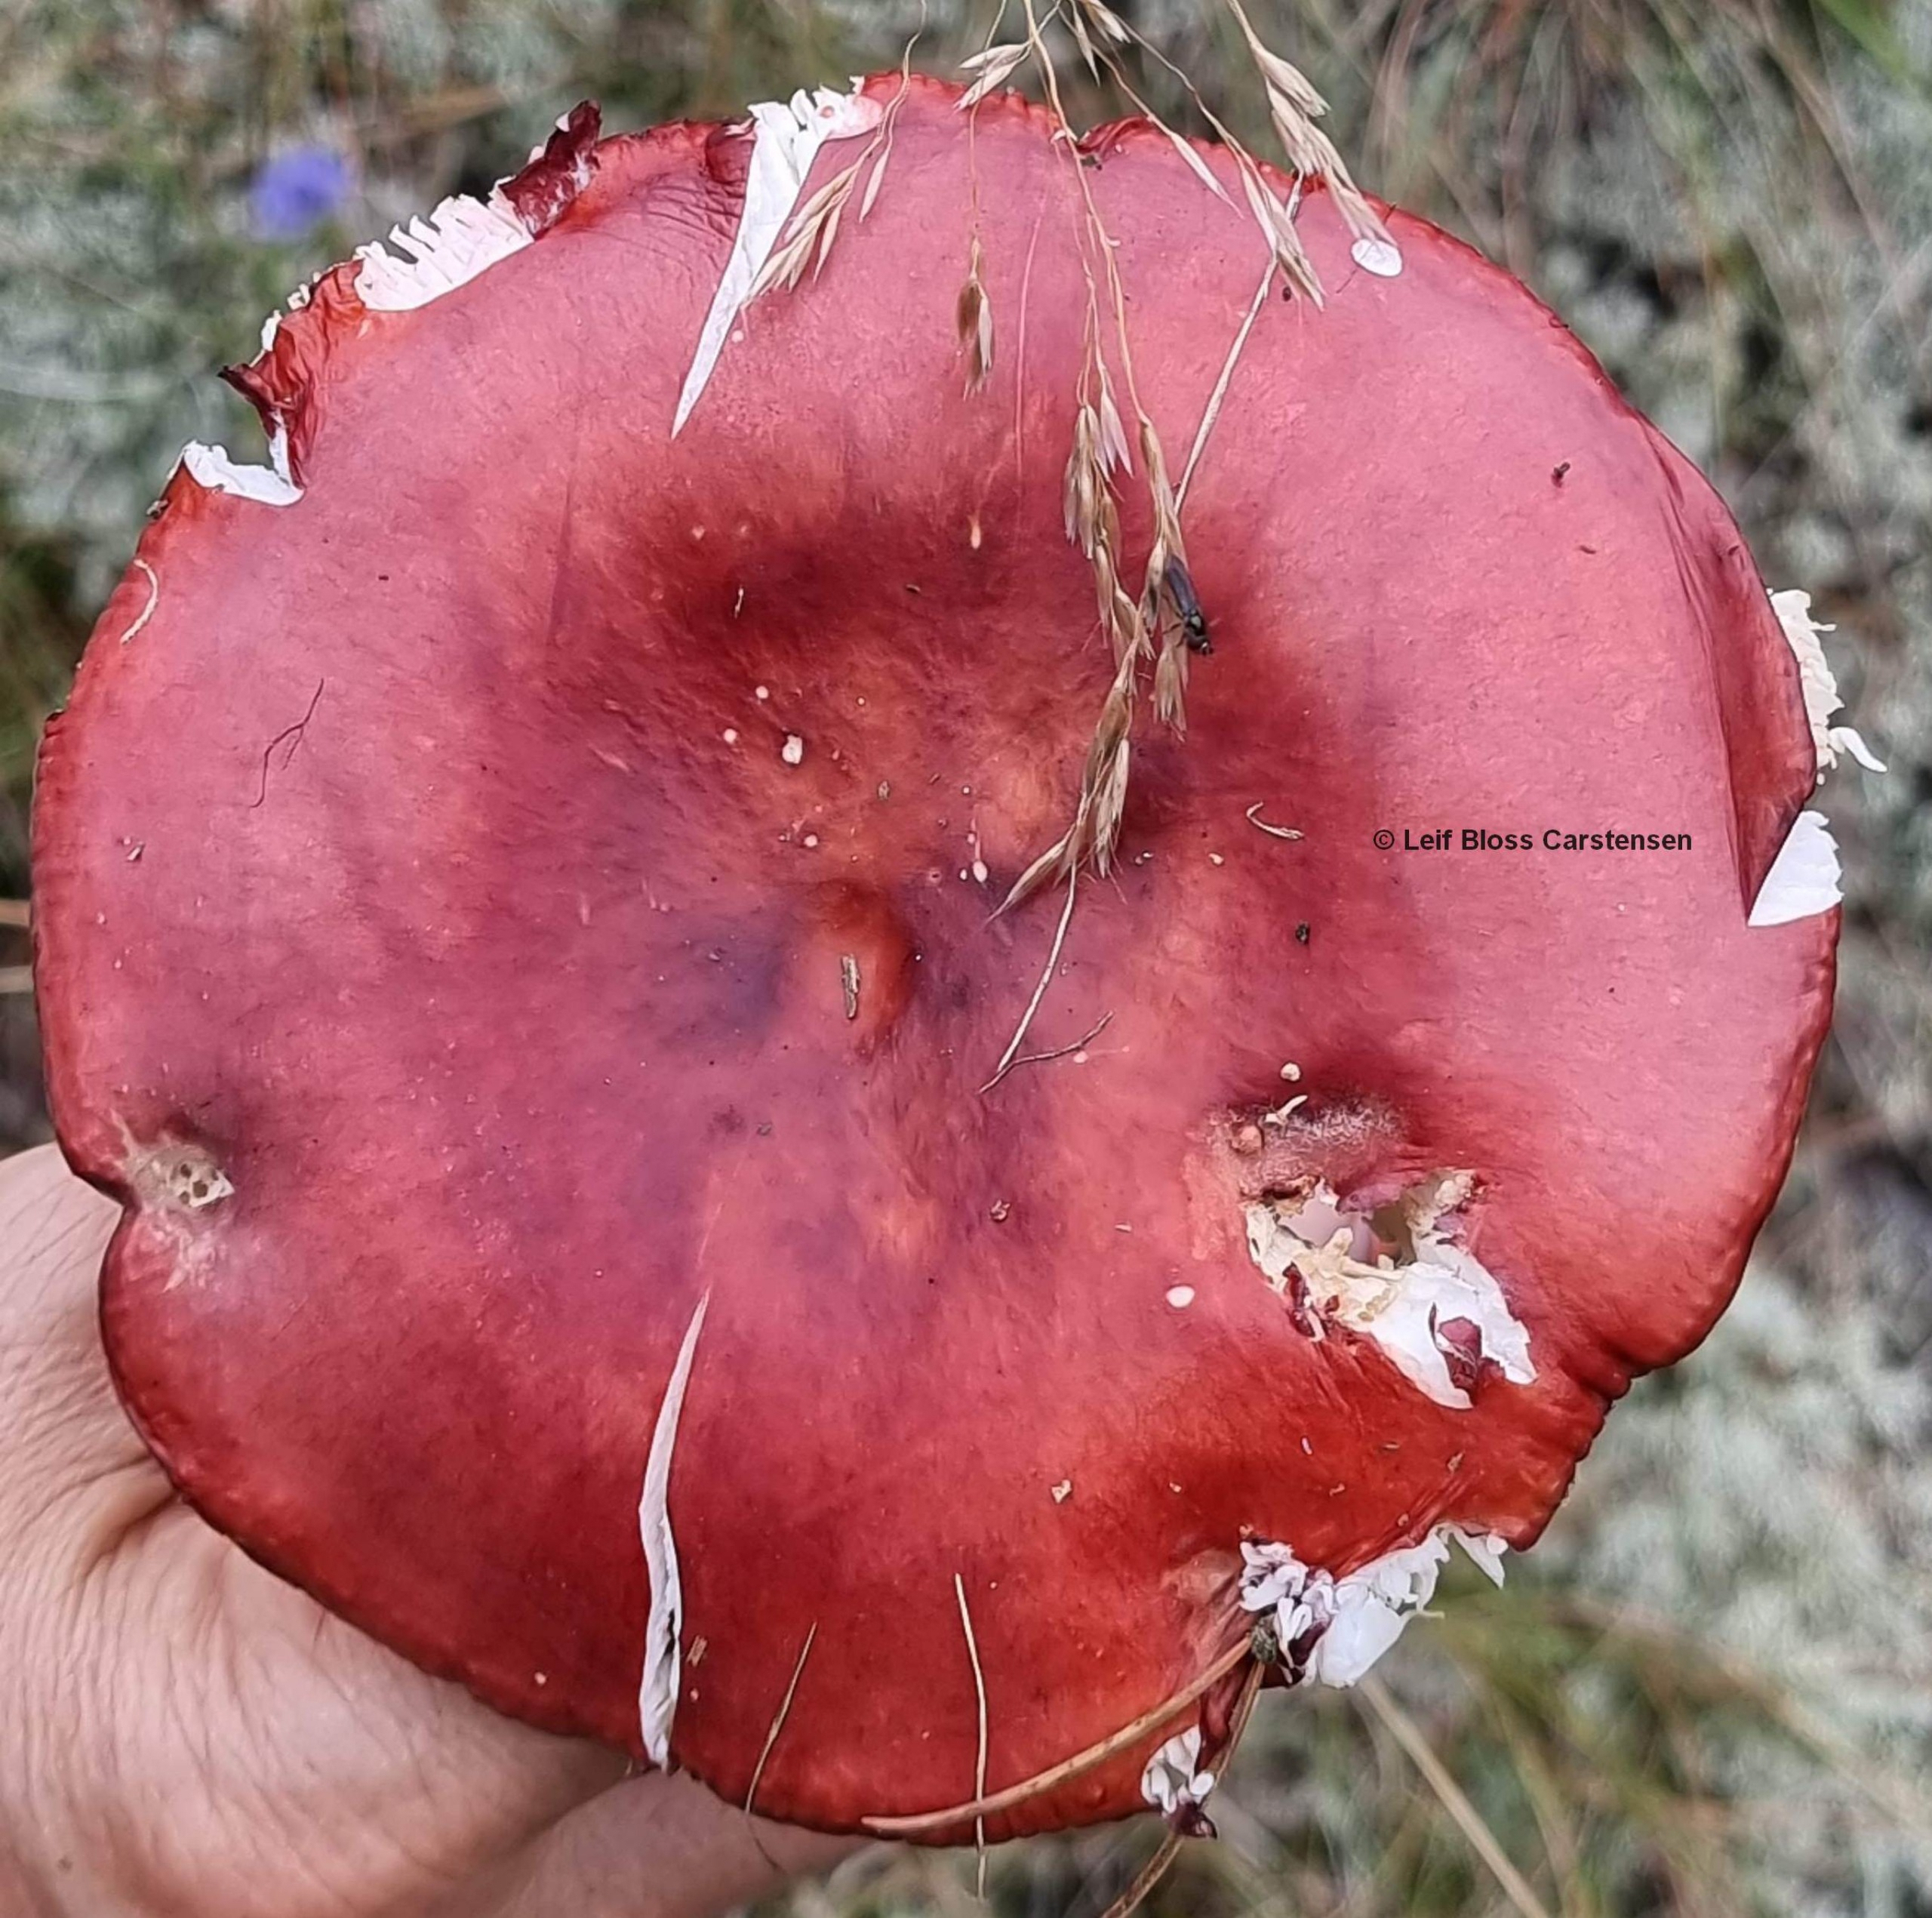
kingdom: Animalia
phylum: Arthropoda
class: Insecta
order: Diptera
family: Syrphidae
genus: Chamaesyrphus
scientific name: Chamaesyrphus lugubris
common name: Dværg-svirreflue
